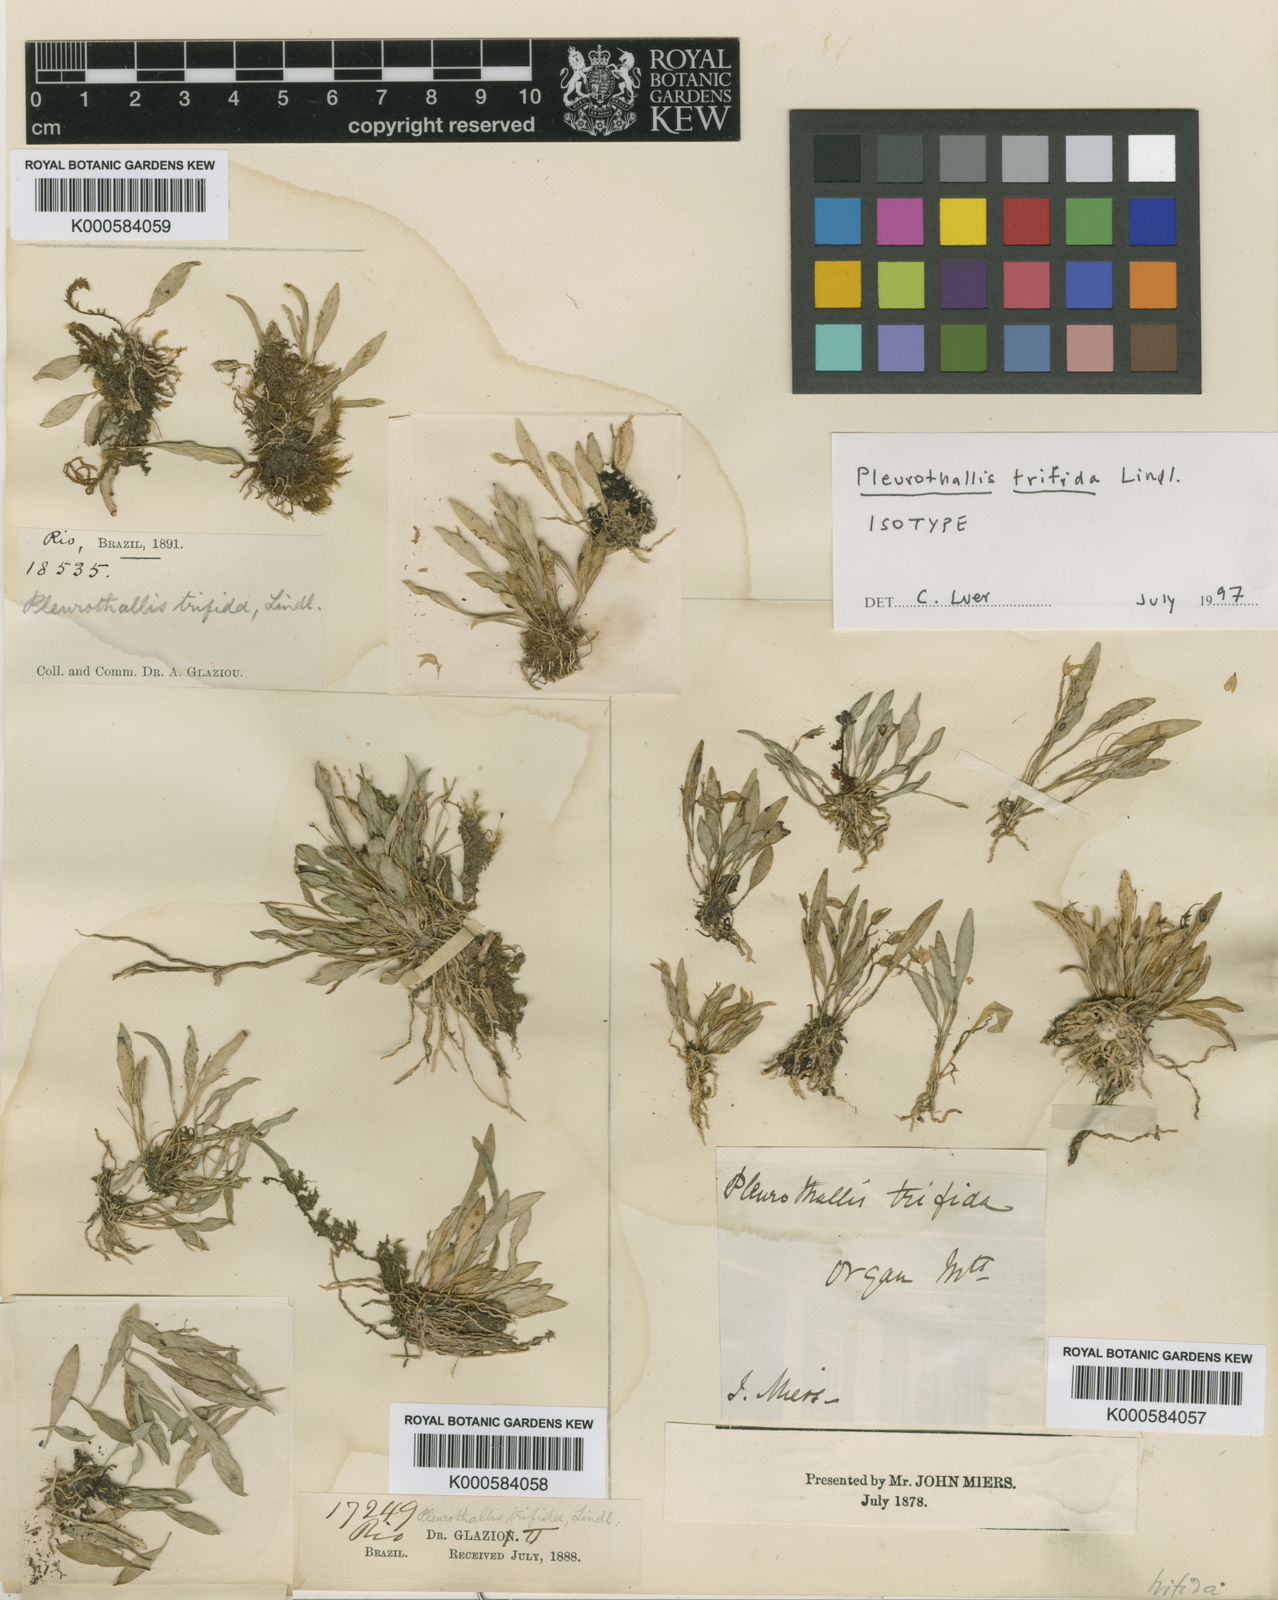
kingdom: Plantae
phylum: Tracheophyta
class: Liliopsida
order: Asparagales
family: Orchidaceae
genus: Pabstiella
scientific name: Pabstiella trifida
